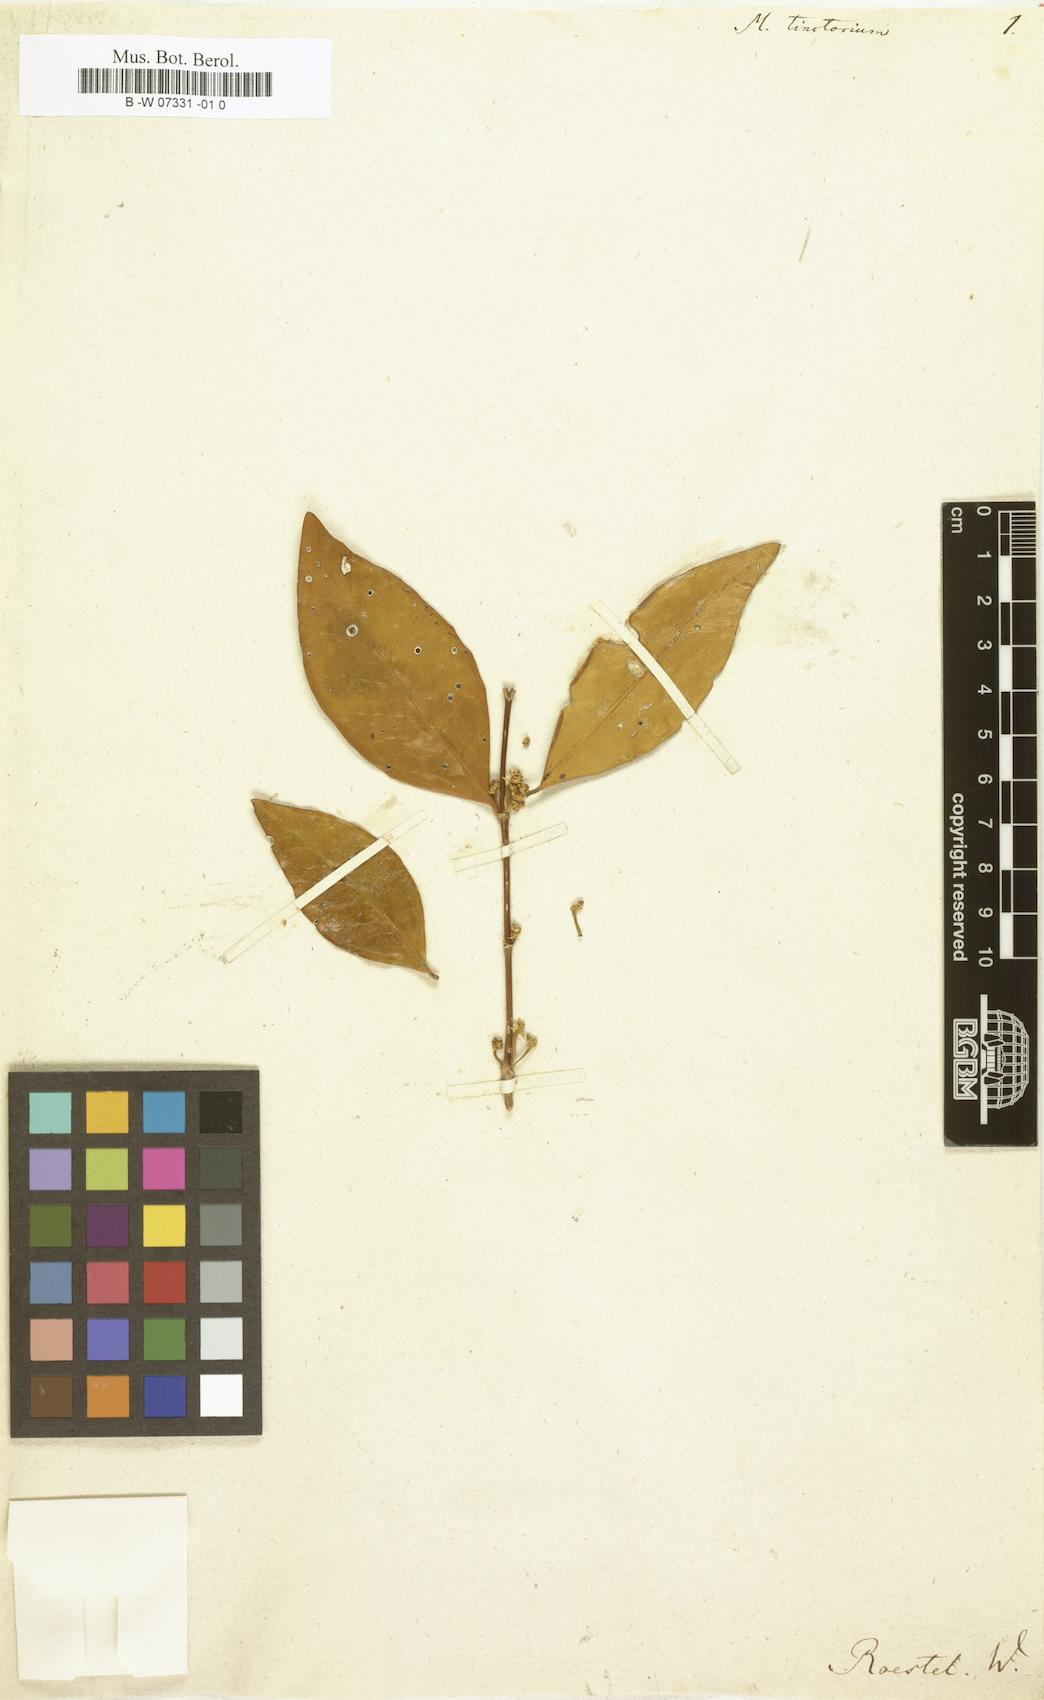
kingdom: Plantae
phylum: Tracheophyta
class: Magnoliopsida
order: Myrtales
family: Melastomataceae
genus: Memecylon
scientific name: Memecylon
